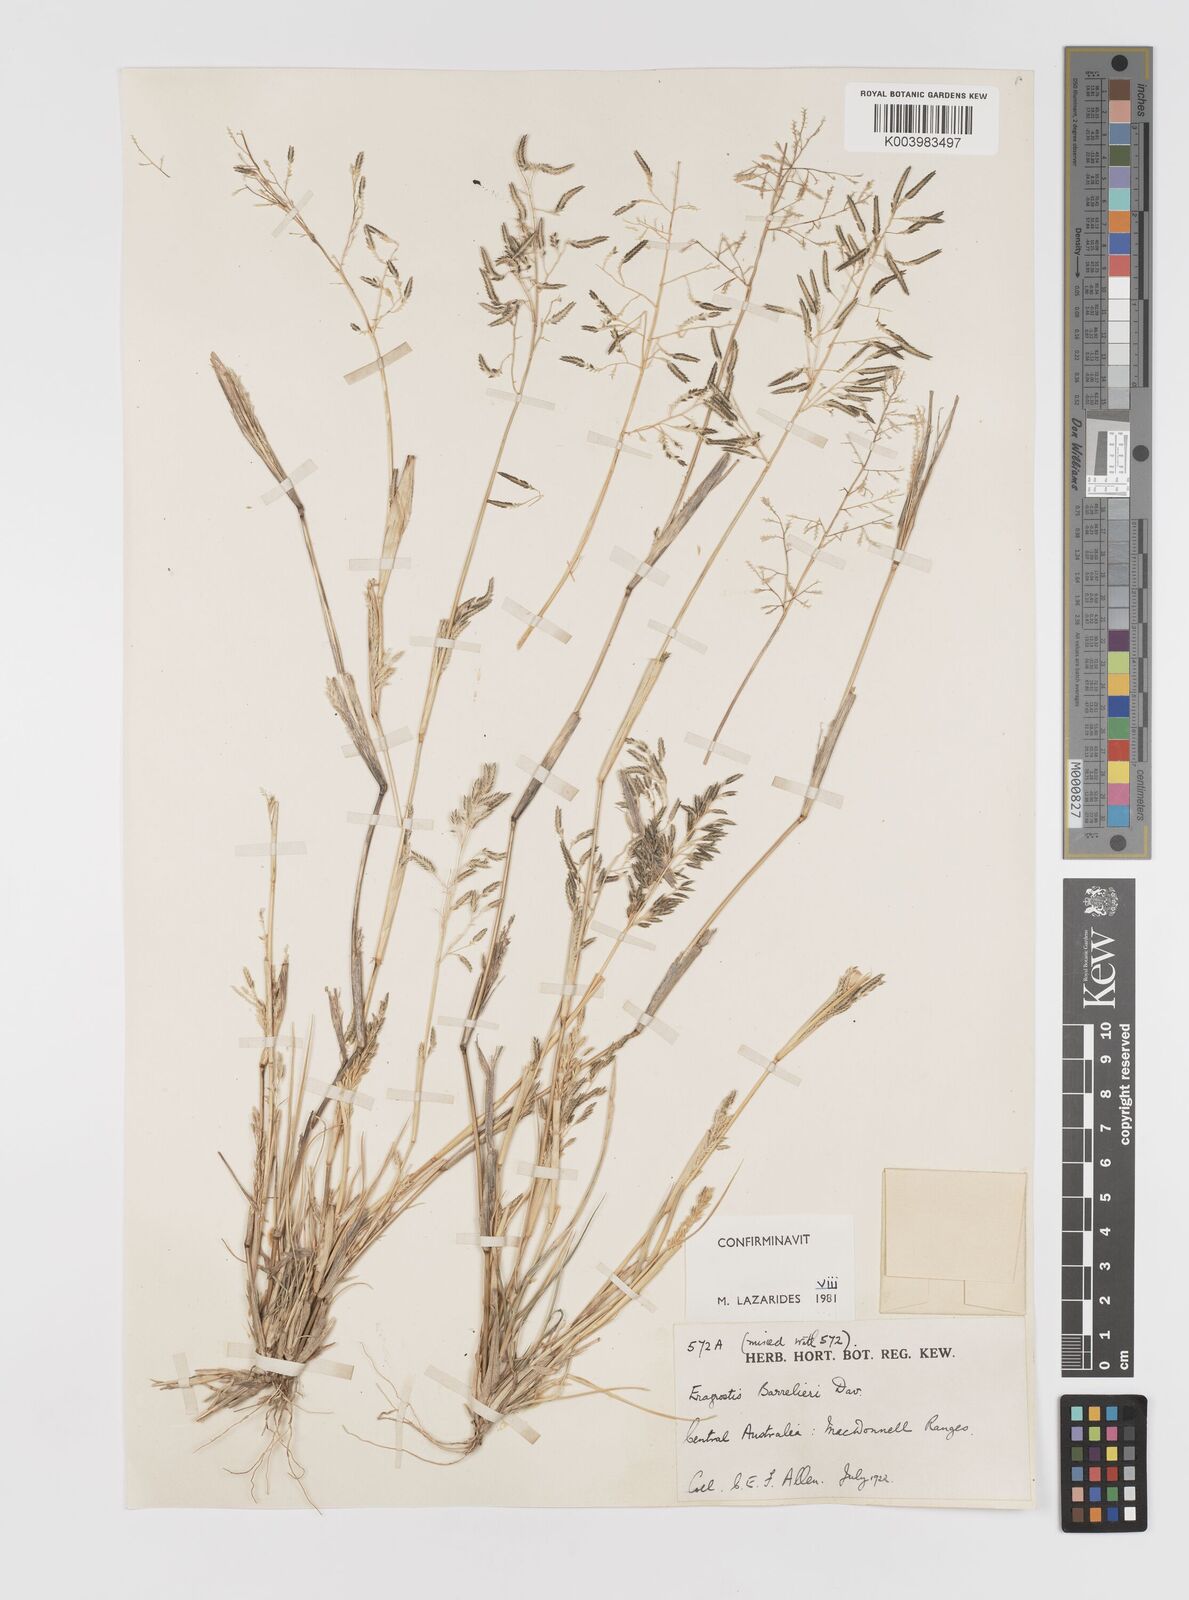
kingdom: Plantae
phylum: Tracheophyta
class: Liliopsida
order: Poales
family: Poaceae
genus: Eragrostis
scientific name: Eragrostis barrelieri
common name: Mediterranean lovegrass
